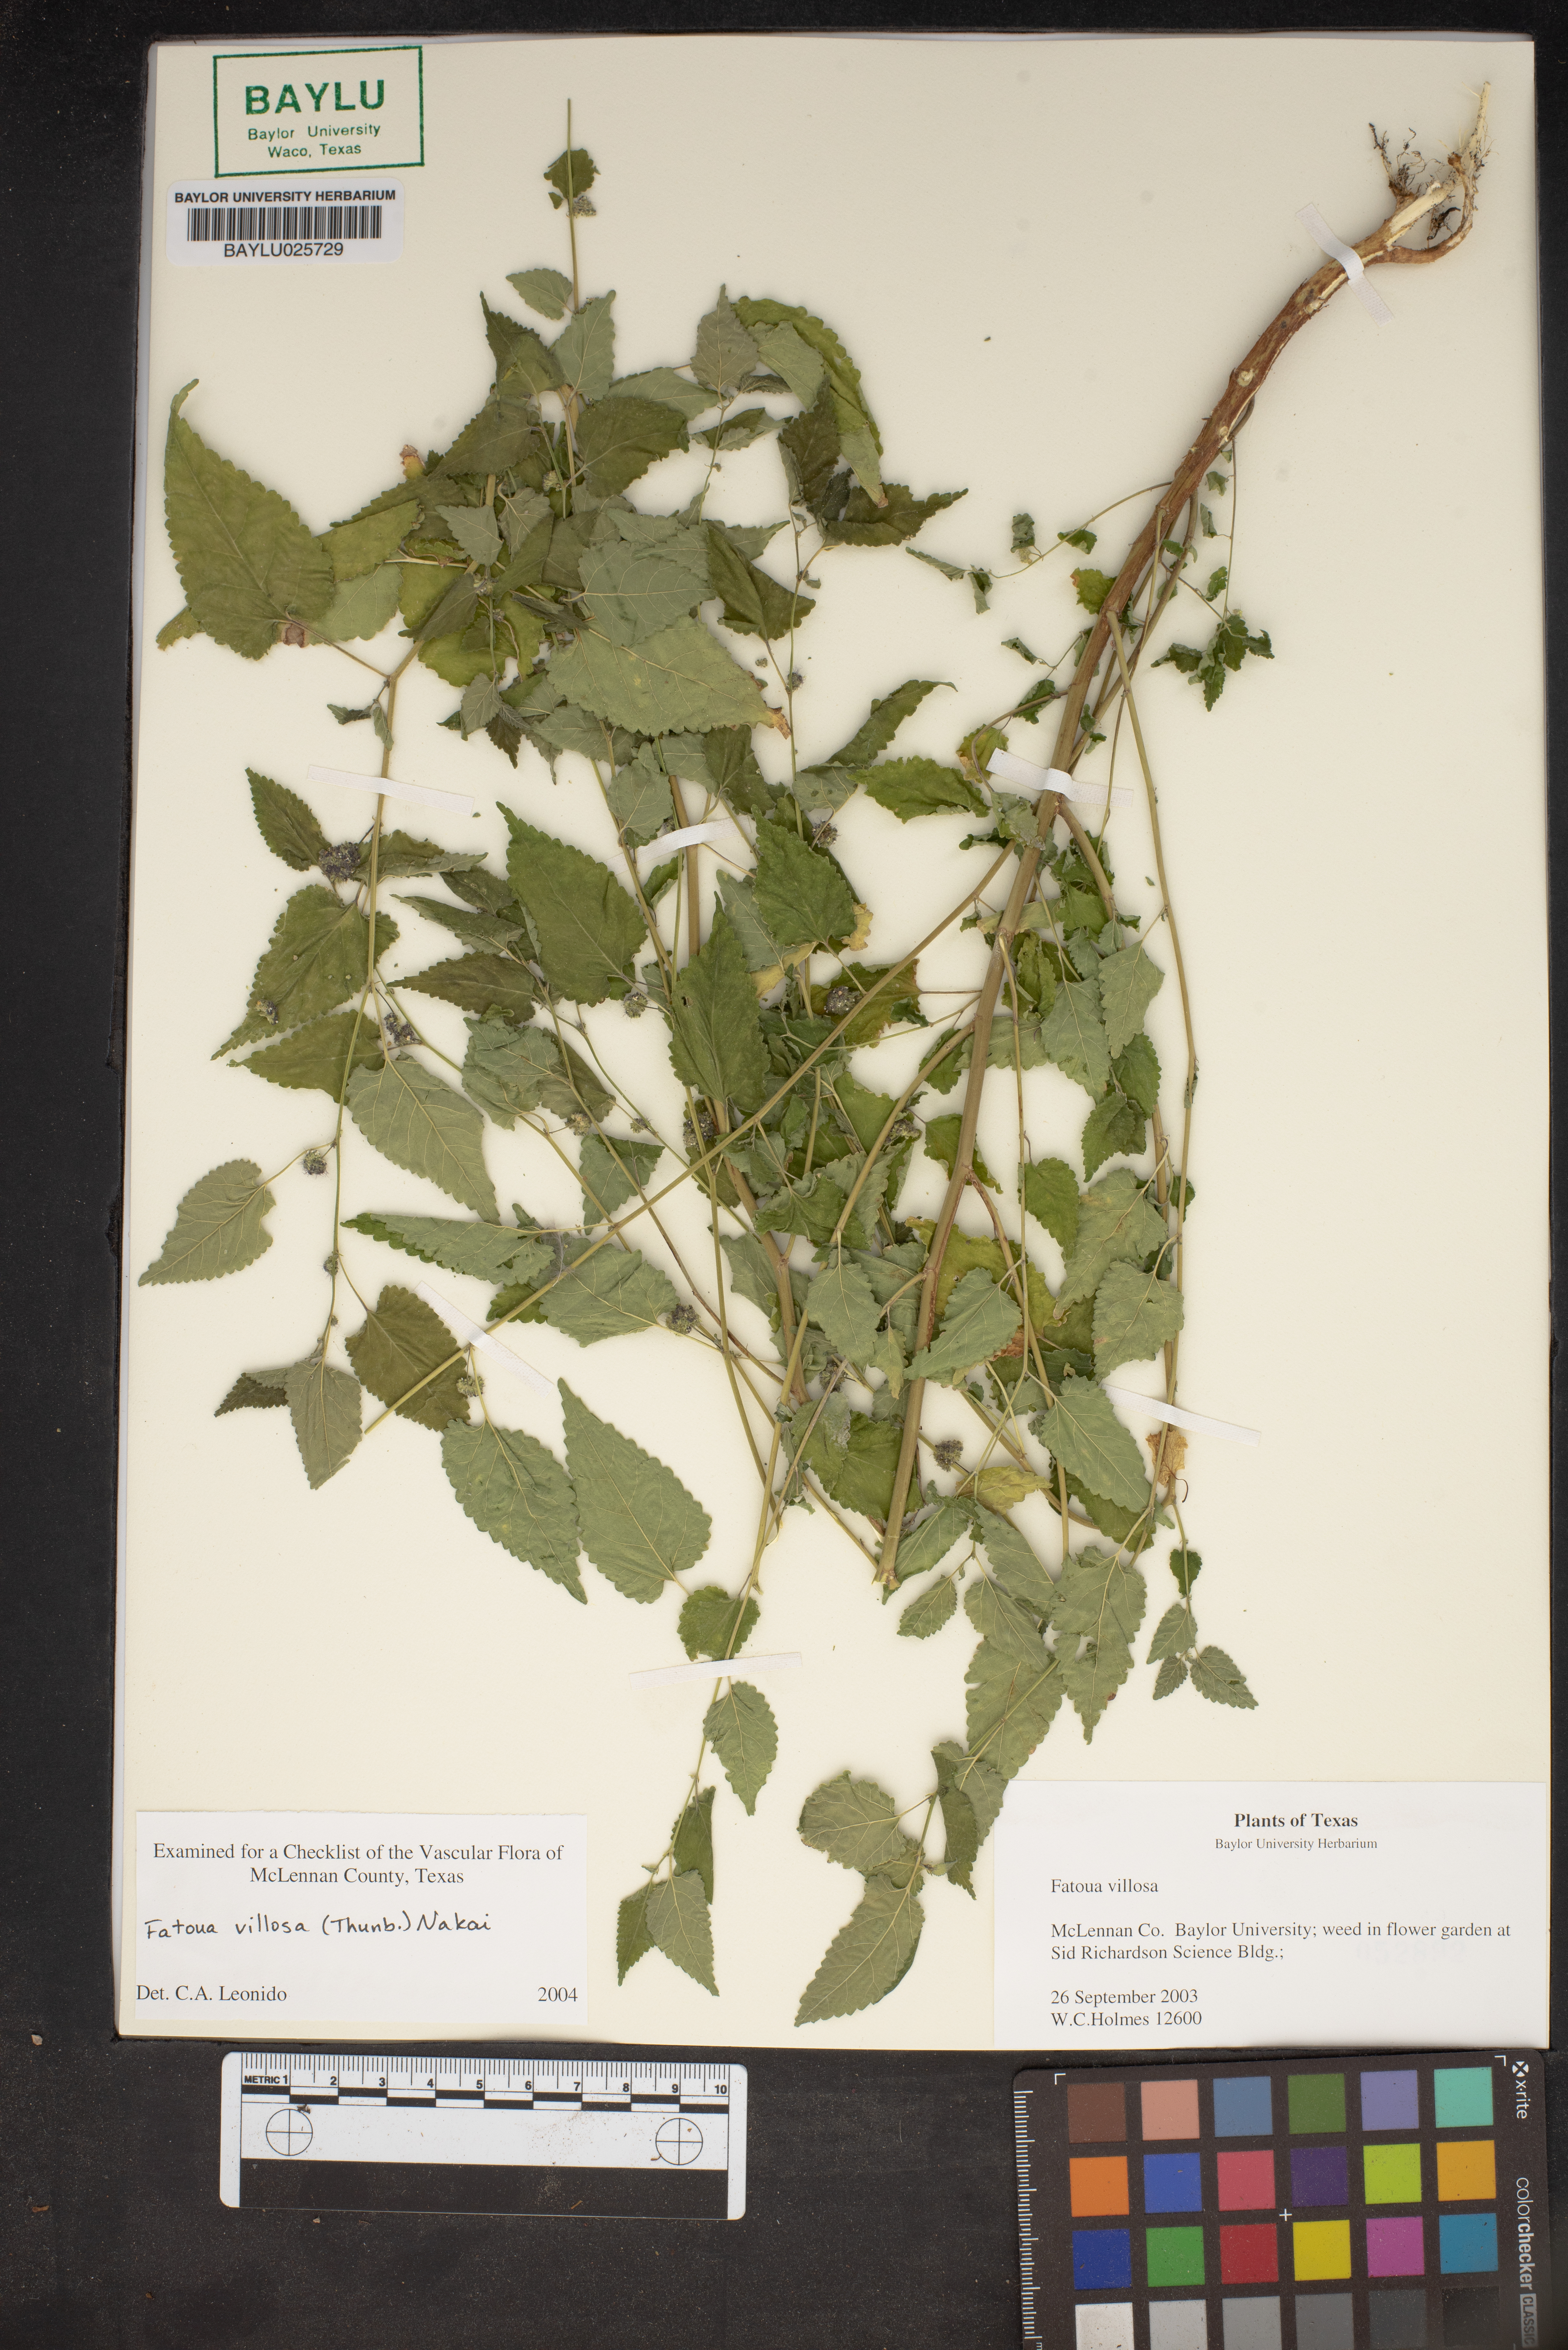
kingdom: Plantae
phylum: Tracheophyta
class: Magnoliopsida
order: Rosales
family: Moraceae
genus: Fatoua
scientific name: Fatoua villosa
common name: Hairy crabweed
